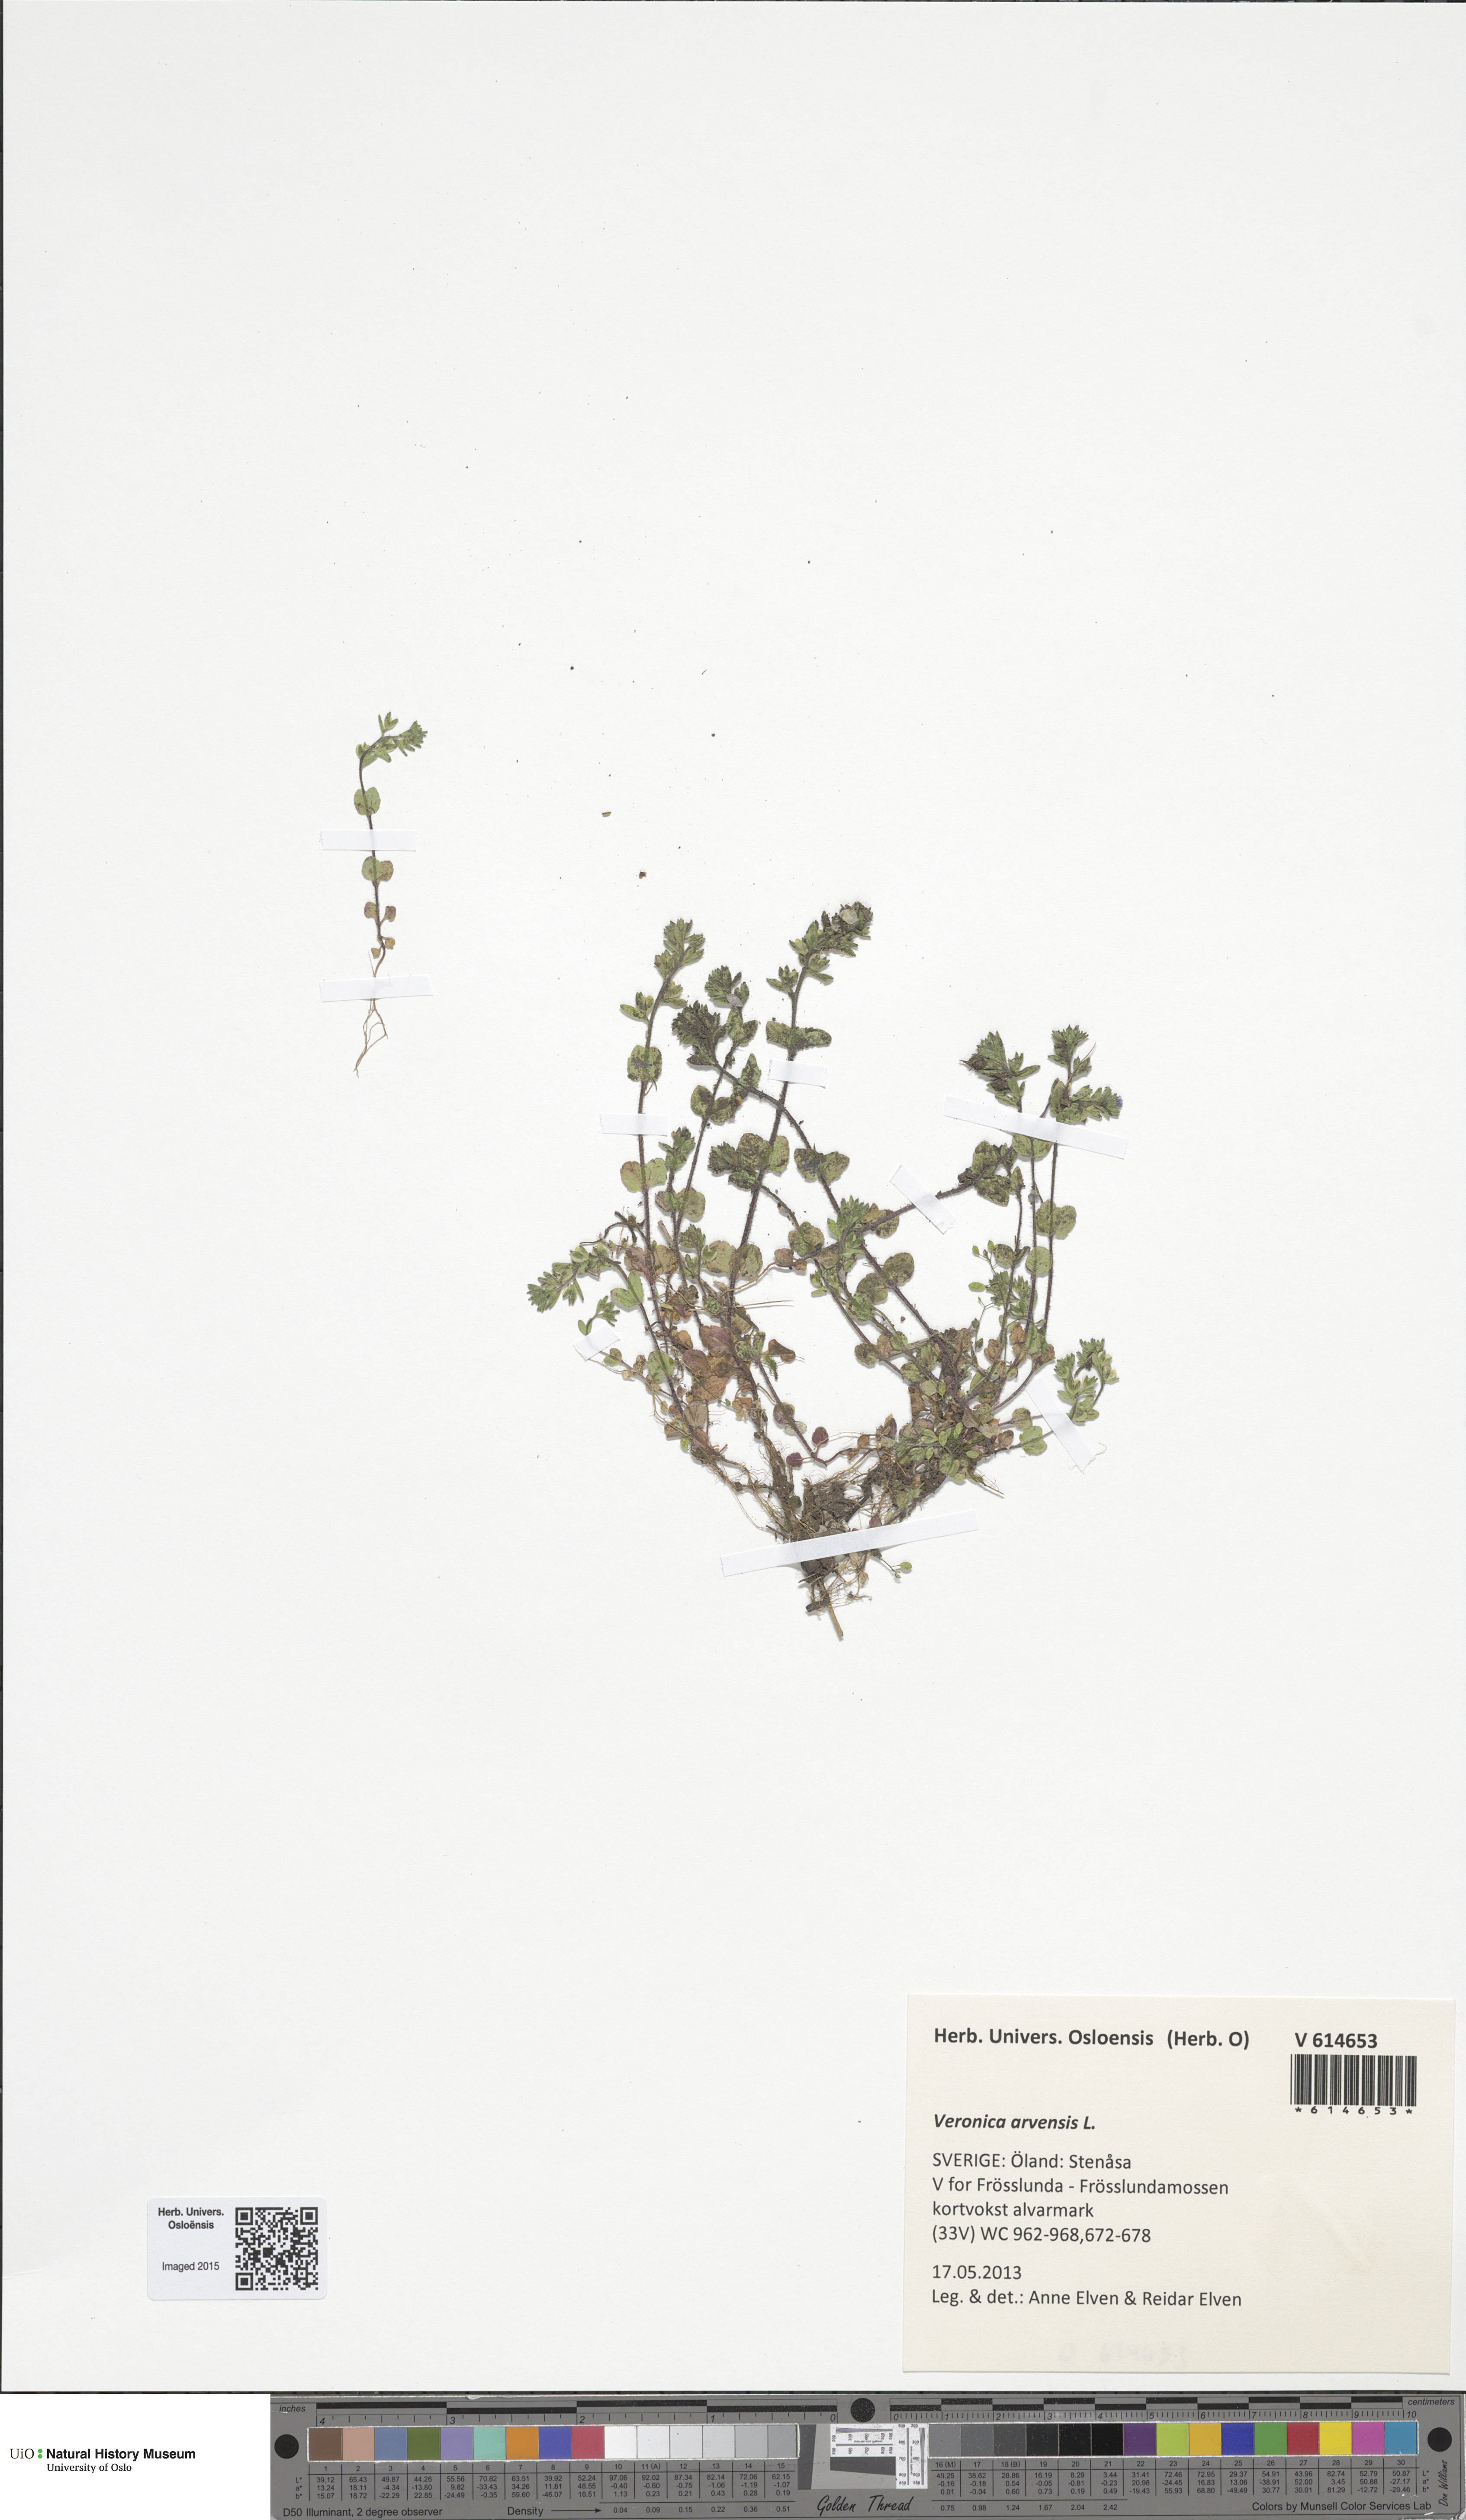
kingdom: Plantae
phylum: Tracheophyta
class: Magnoliopsida
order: Lamiales
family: Plantaginaceae
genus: Veronica
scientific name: Veronica arvensis
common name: Corn speedwell
